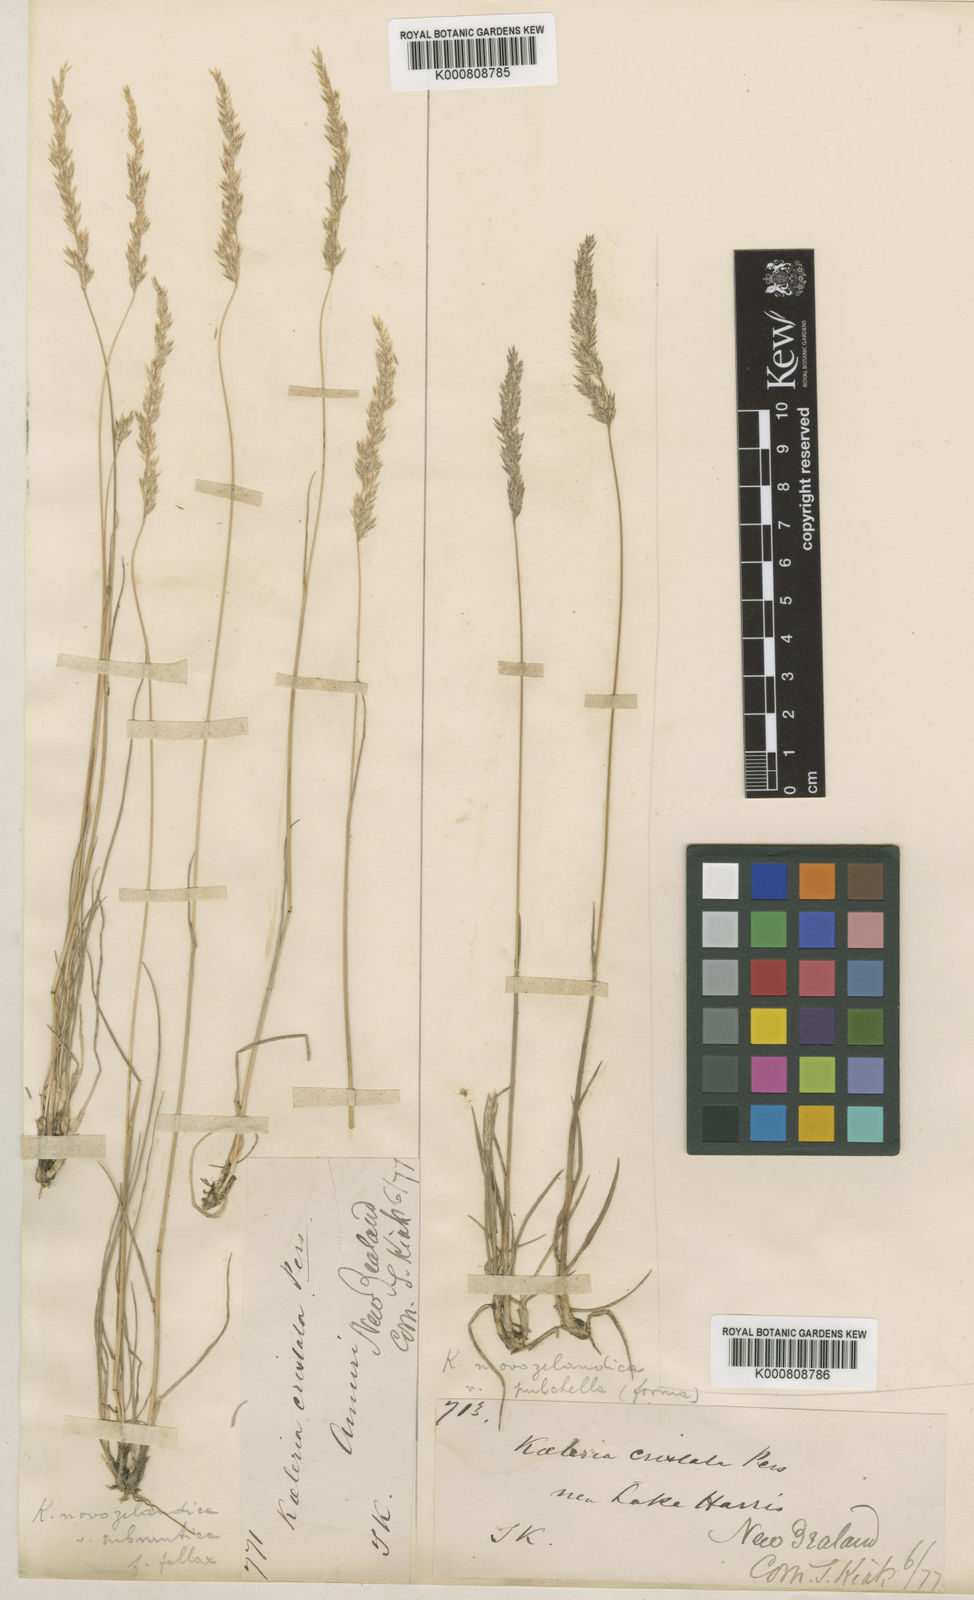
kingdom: Plantae
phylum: Tracheophyta
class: Liliopsida
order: Poales
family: Poaceae
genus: Koeleria
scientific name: Koeleria novozelandica
